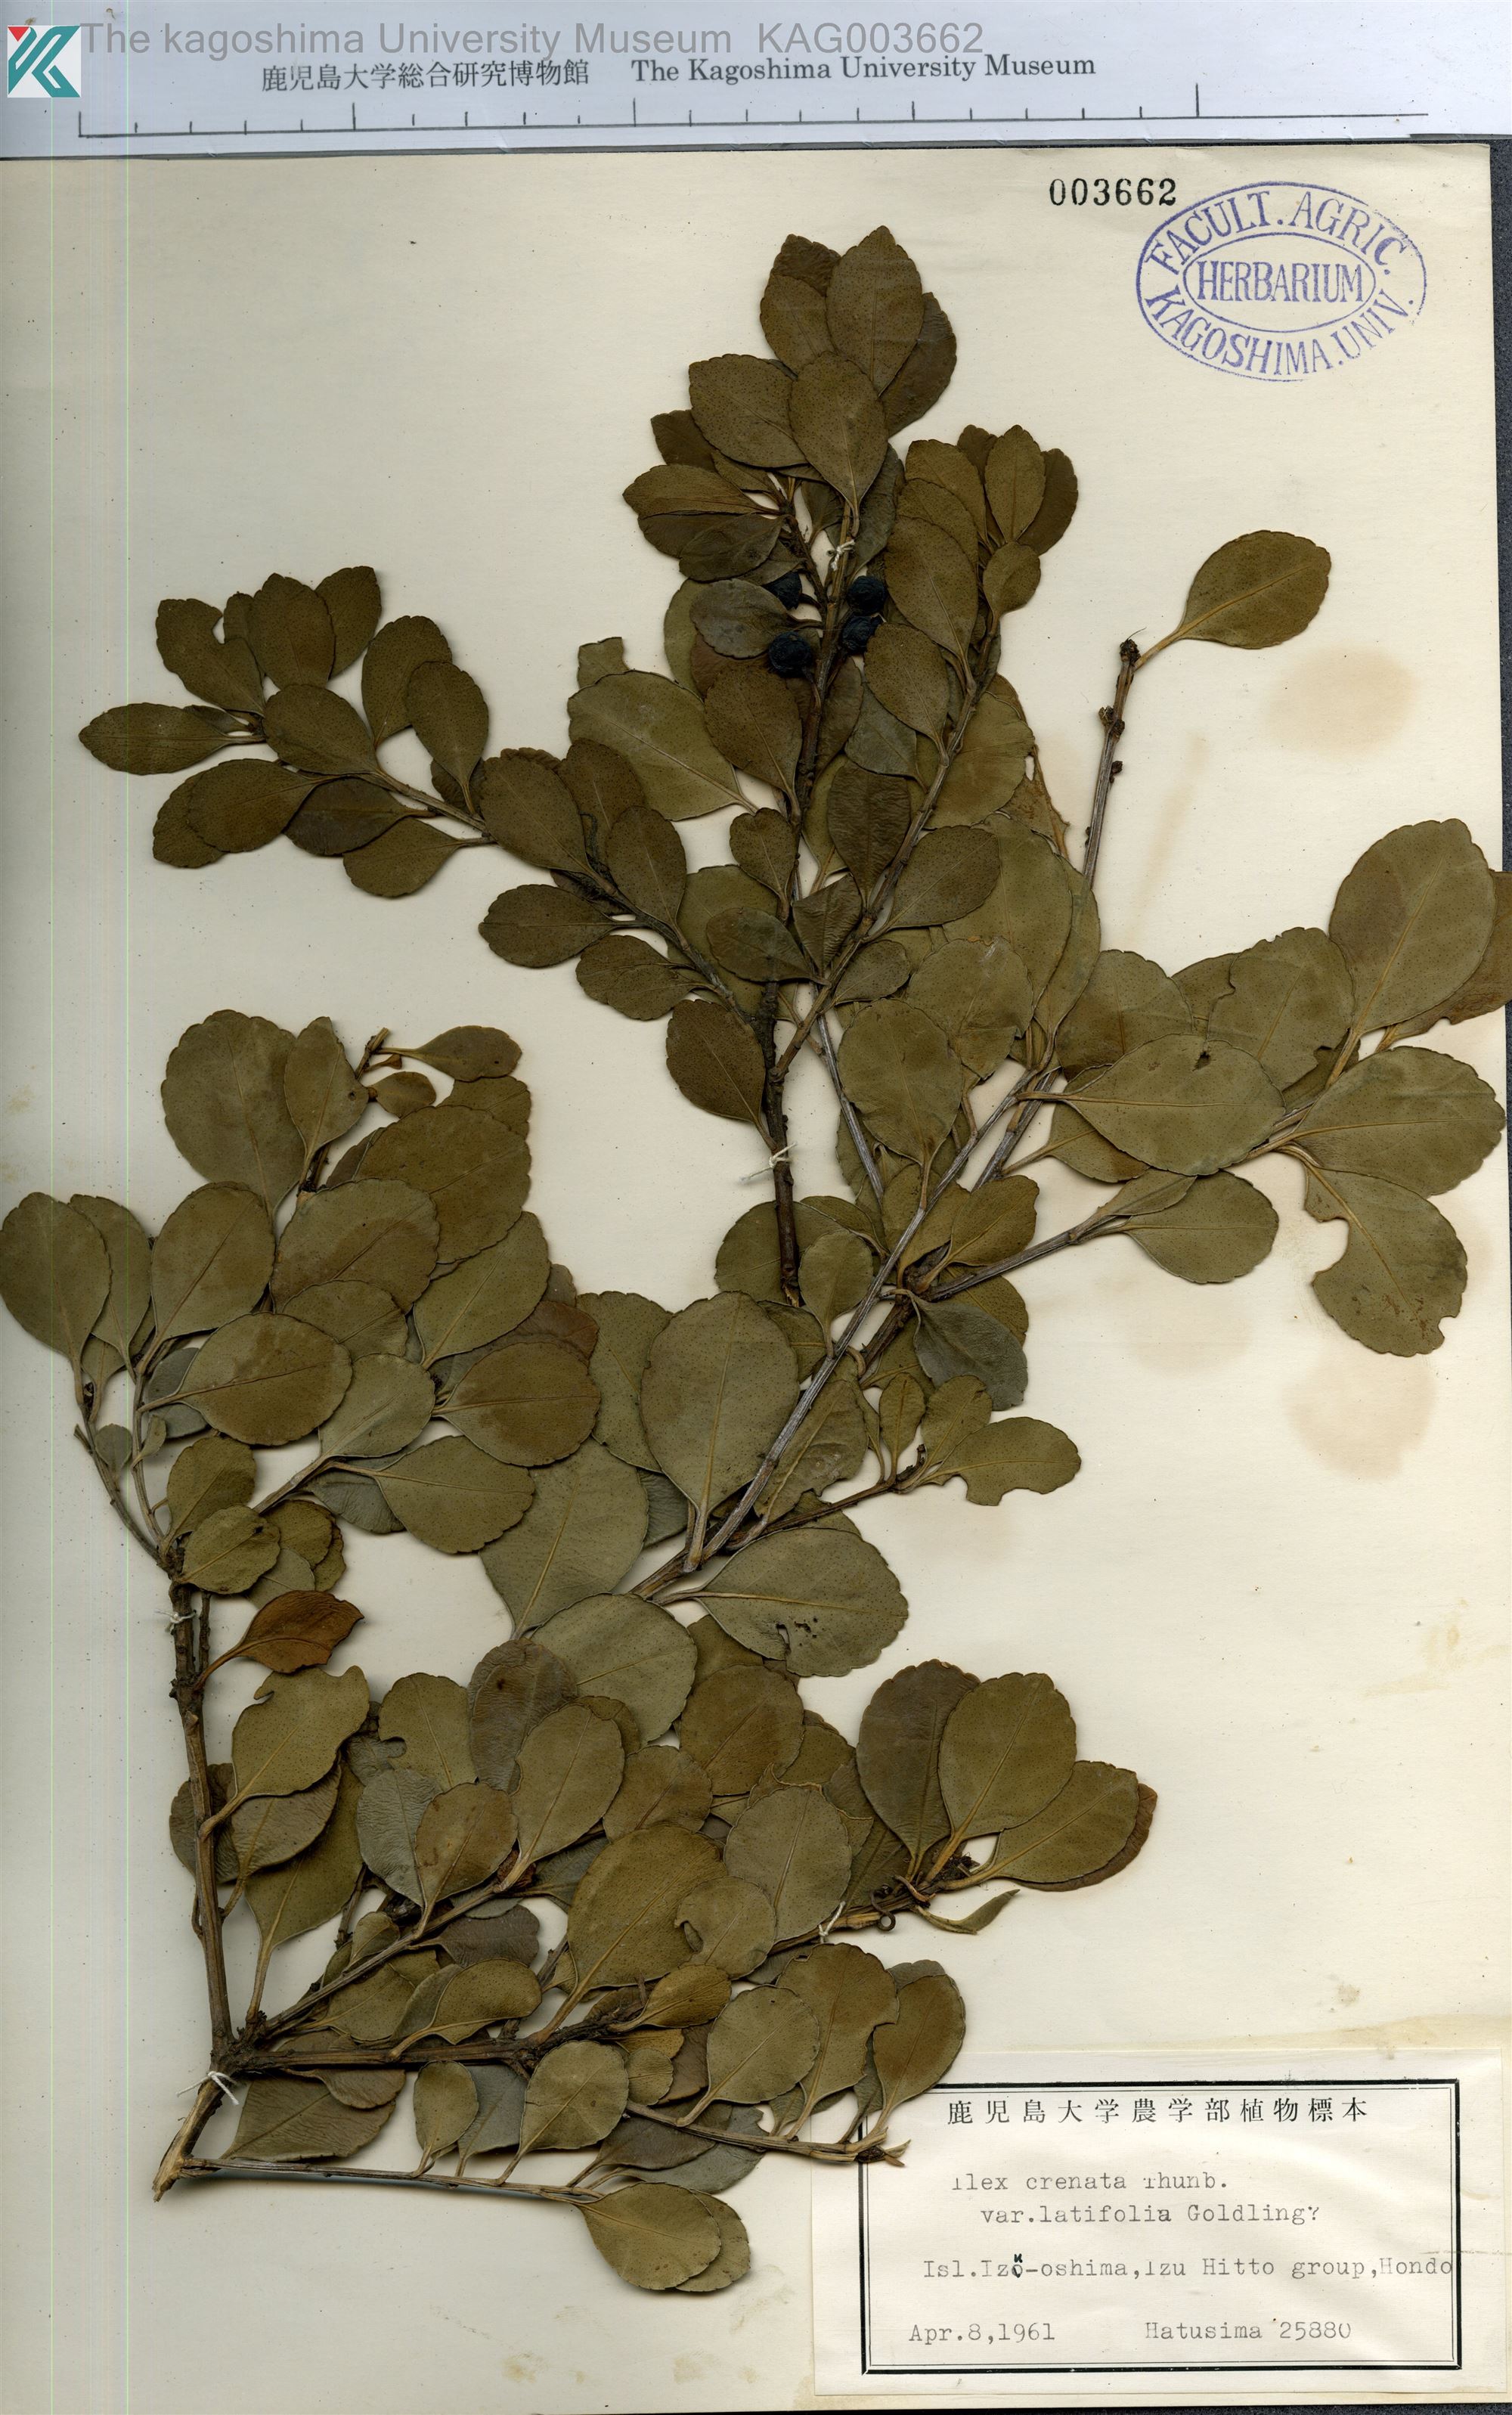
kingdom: Plantae
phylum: Tracheophyta
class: Magnoliopsida
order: Aquifoliales
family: Aquifoliaceae
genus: Ilex
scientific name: Ilex crenata
